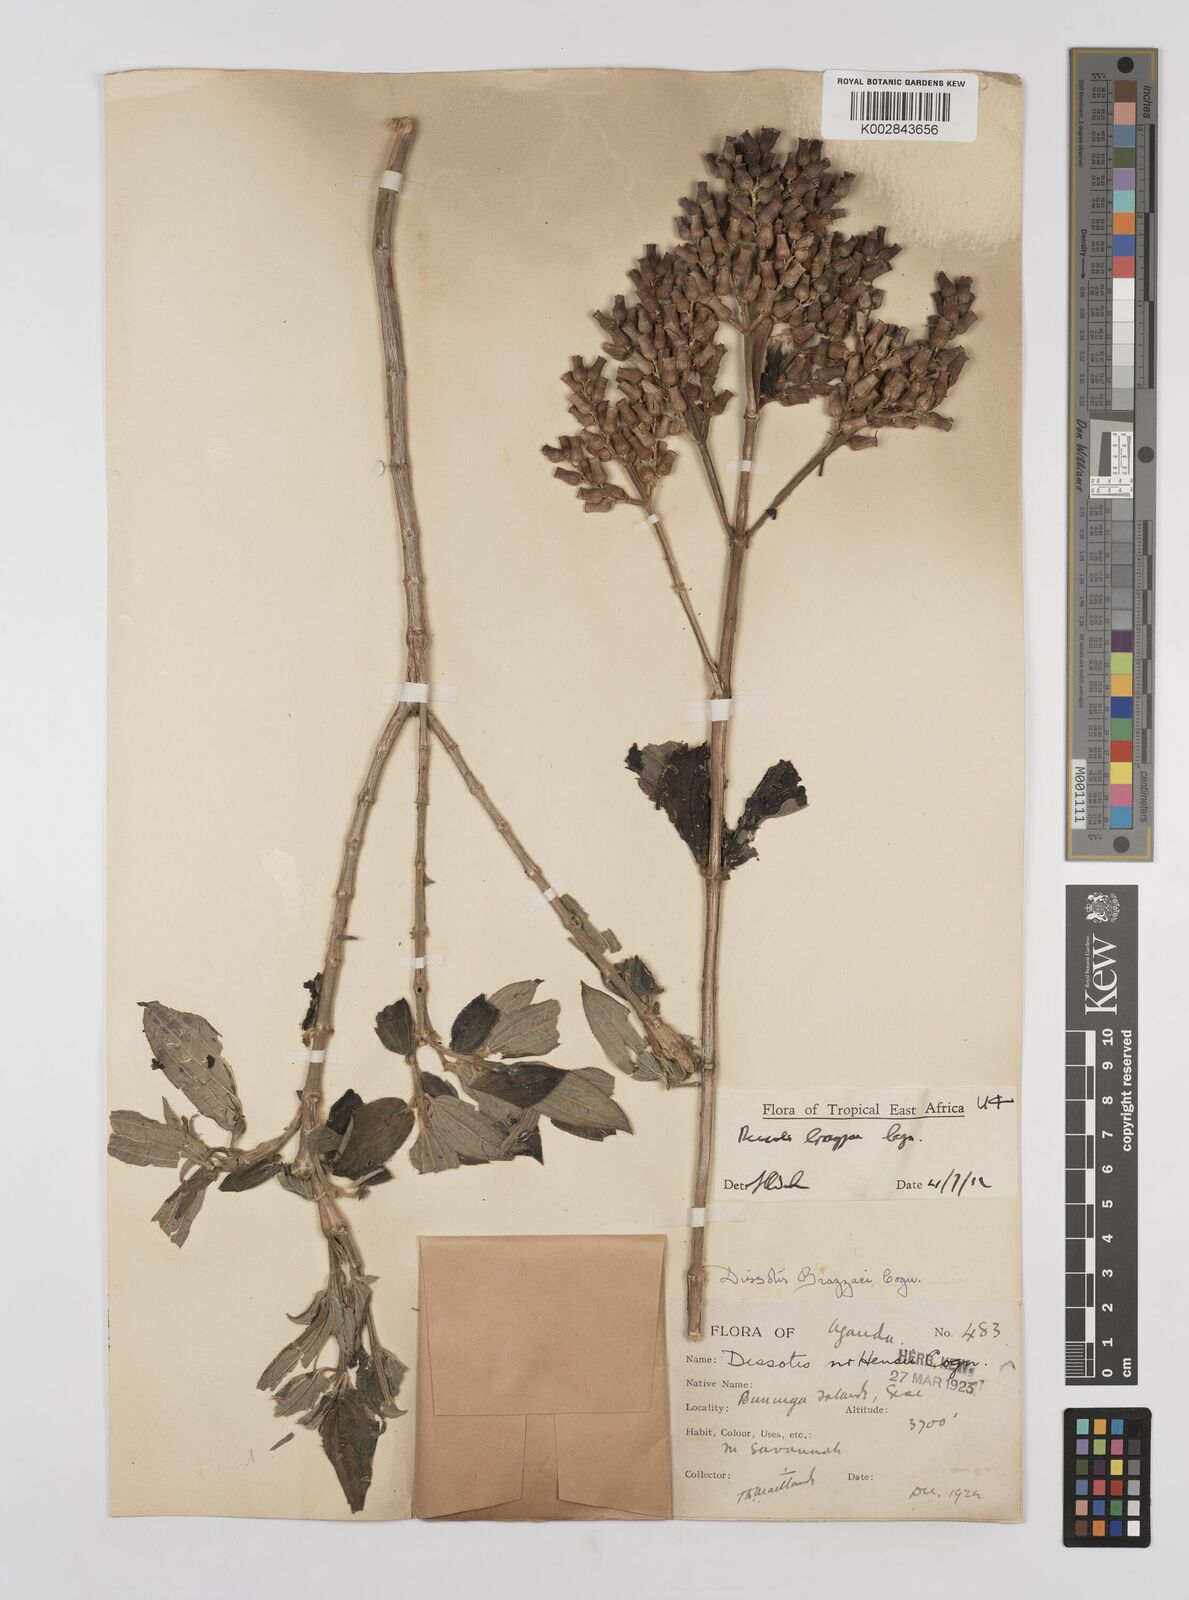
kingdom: Plantae
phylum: Tracheophyta
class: Magnoliopsida
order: Myrtales
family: Melastomataceae
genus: Dupineta
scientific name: Dupineta brazzae
